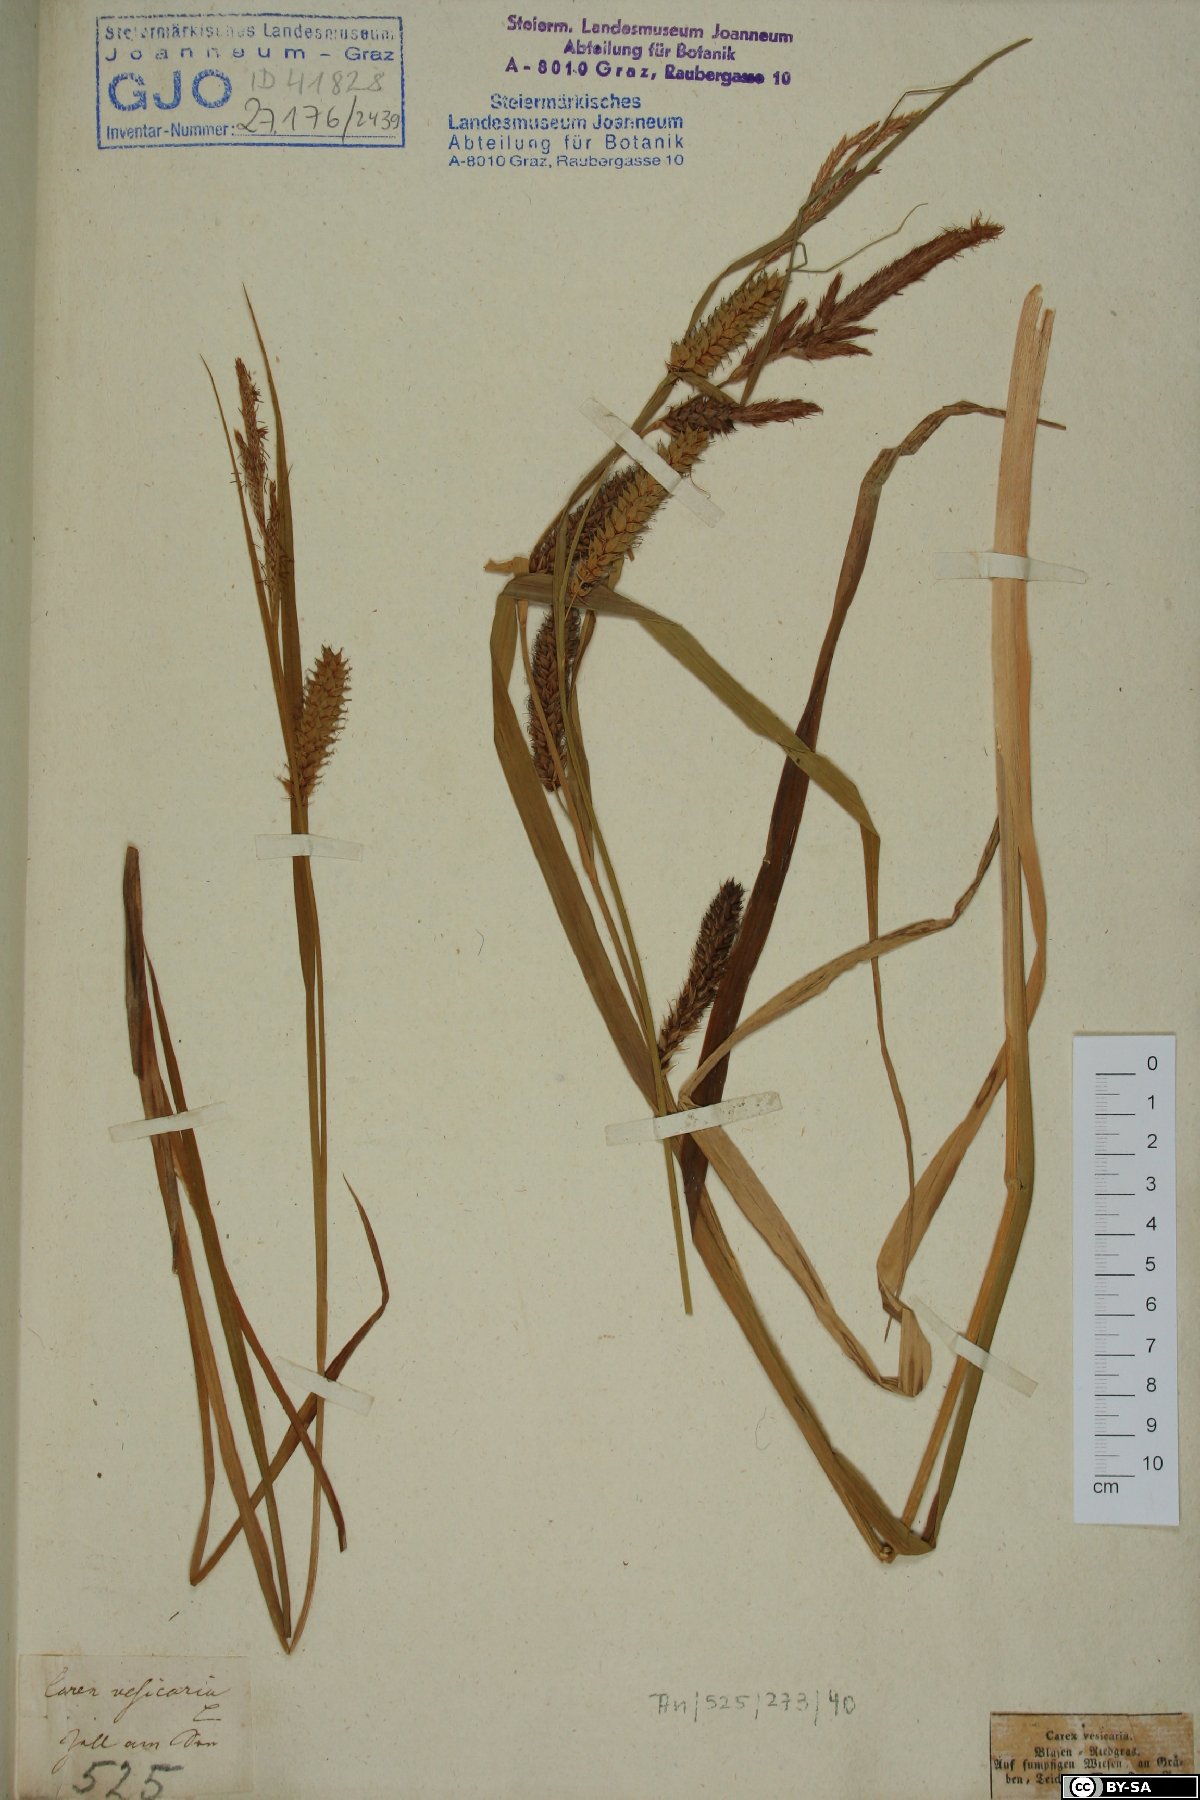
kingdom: Plantae
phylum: Tracheophyta
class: Liliopsida
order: Poales
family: Cyperaceae
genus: Carex
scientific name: Carex vesicaria
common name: Bladder-sedge
